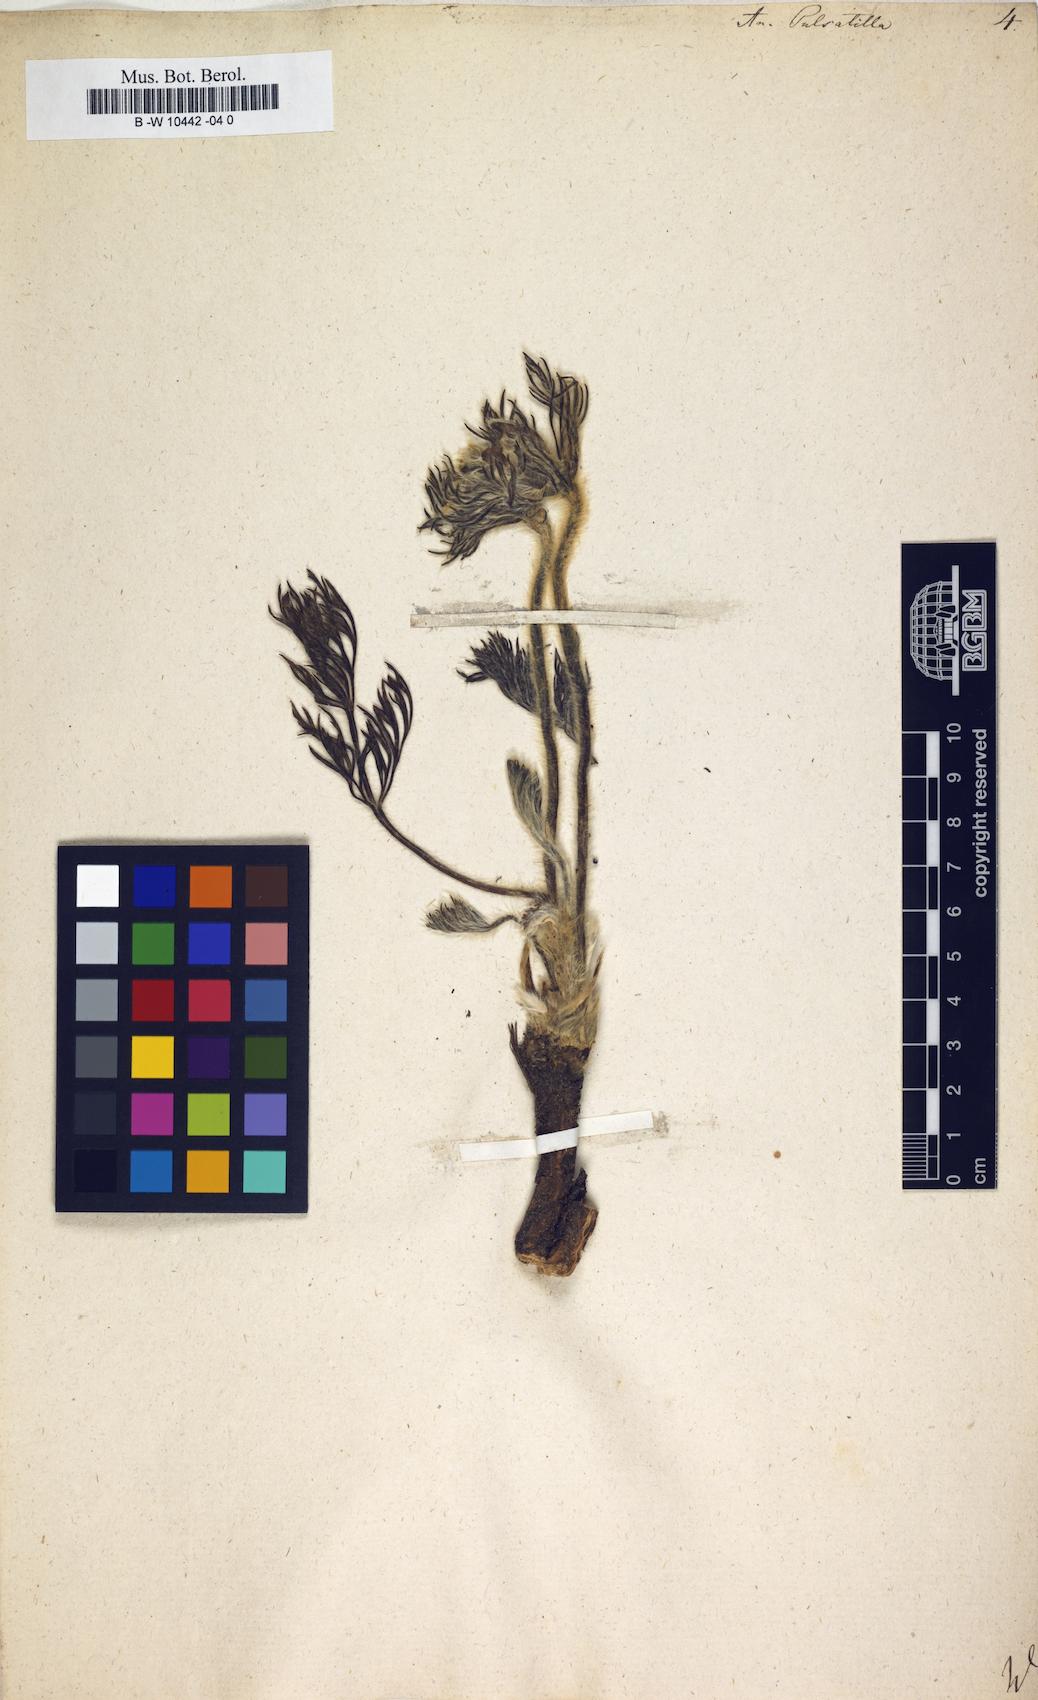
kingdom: Plantae
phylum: Tracheophyta
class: Magnoliopsida
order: Ranunculales
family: Ranunculaceae
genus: Pulsatilla
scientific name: Pulsatilla vulgaris
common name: Pasqueflower
